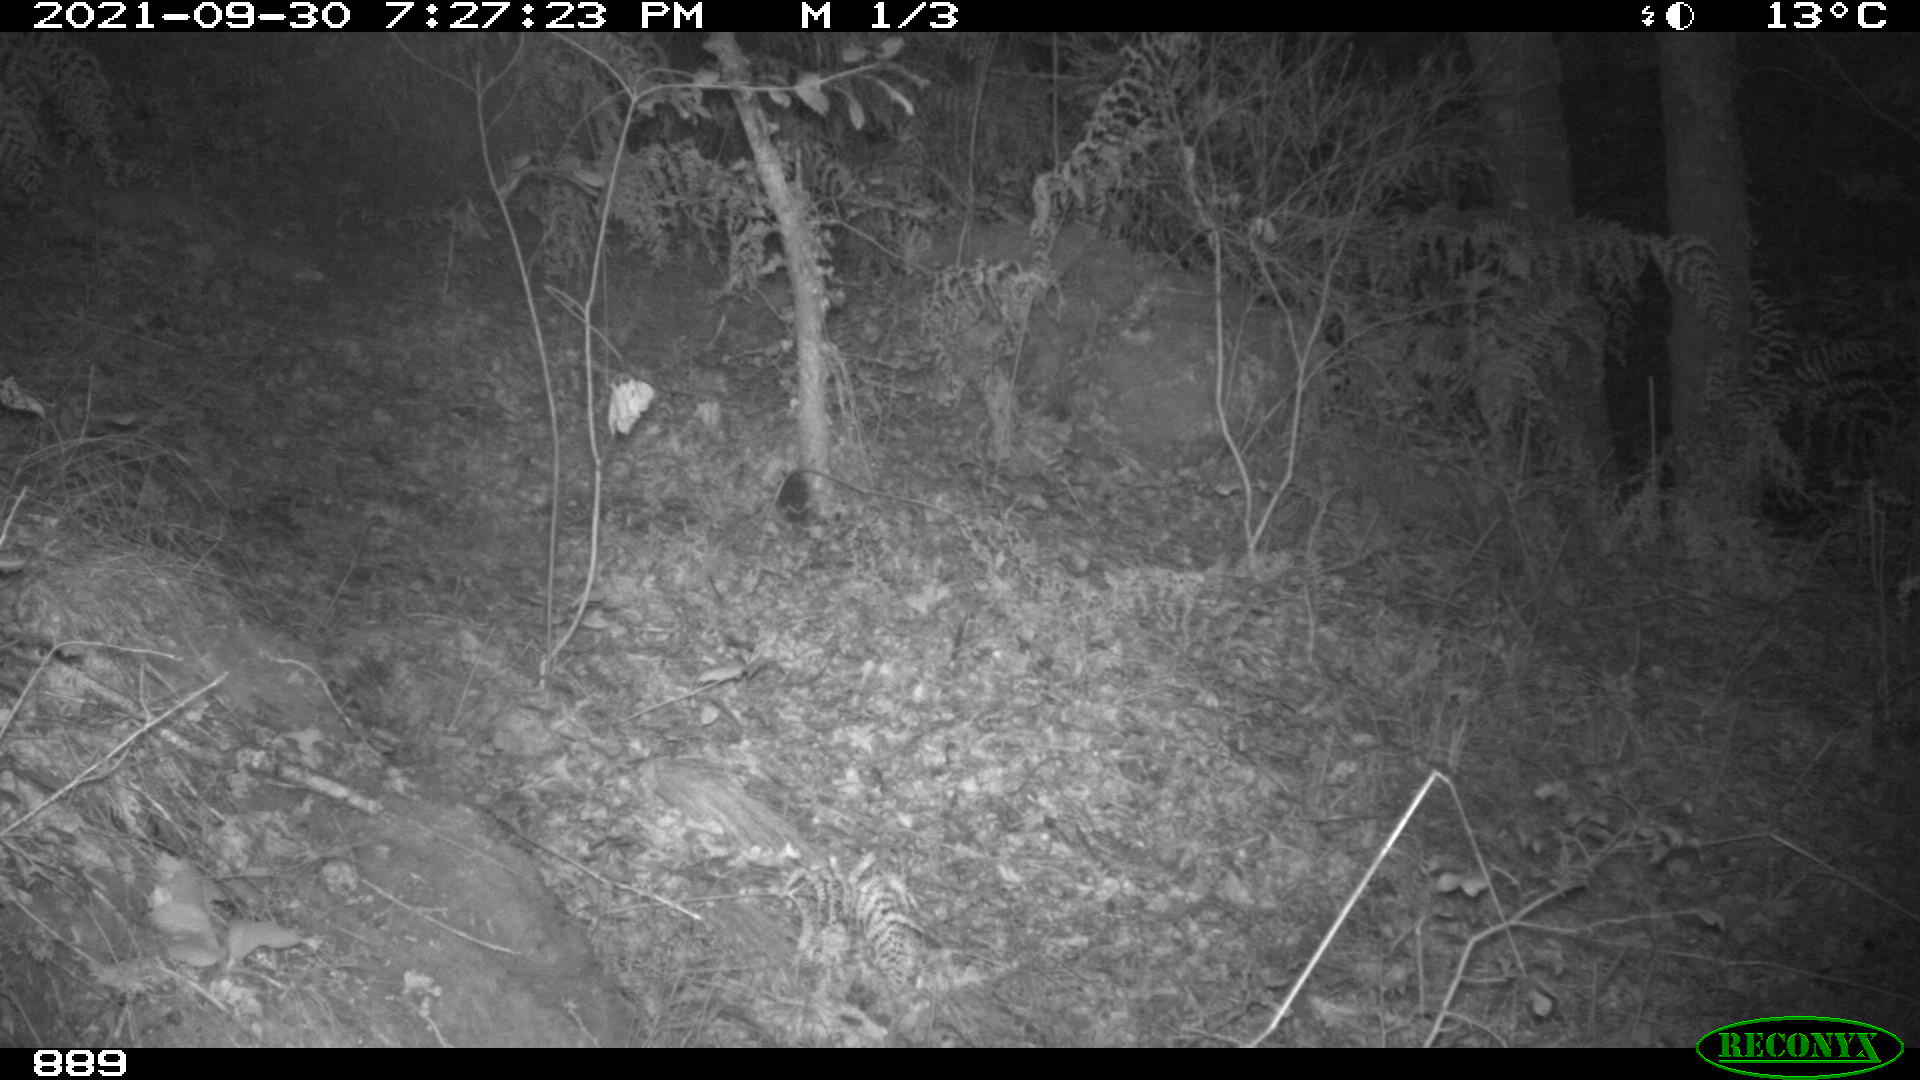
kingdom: Animalia
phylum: Chordata
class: Mammalia
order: Artiodactyla
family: Suidae
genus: Sus
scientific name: Sus scrofa
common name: Wild boar
